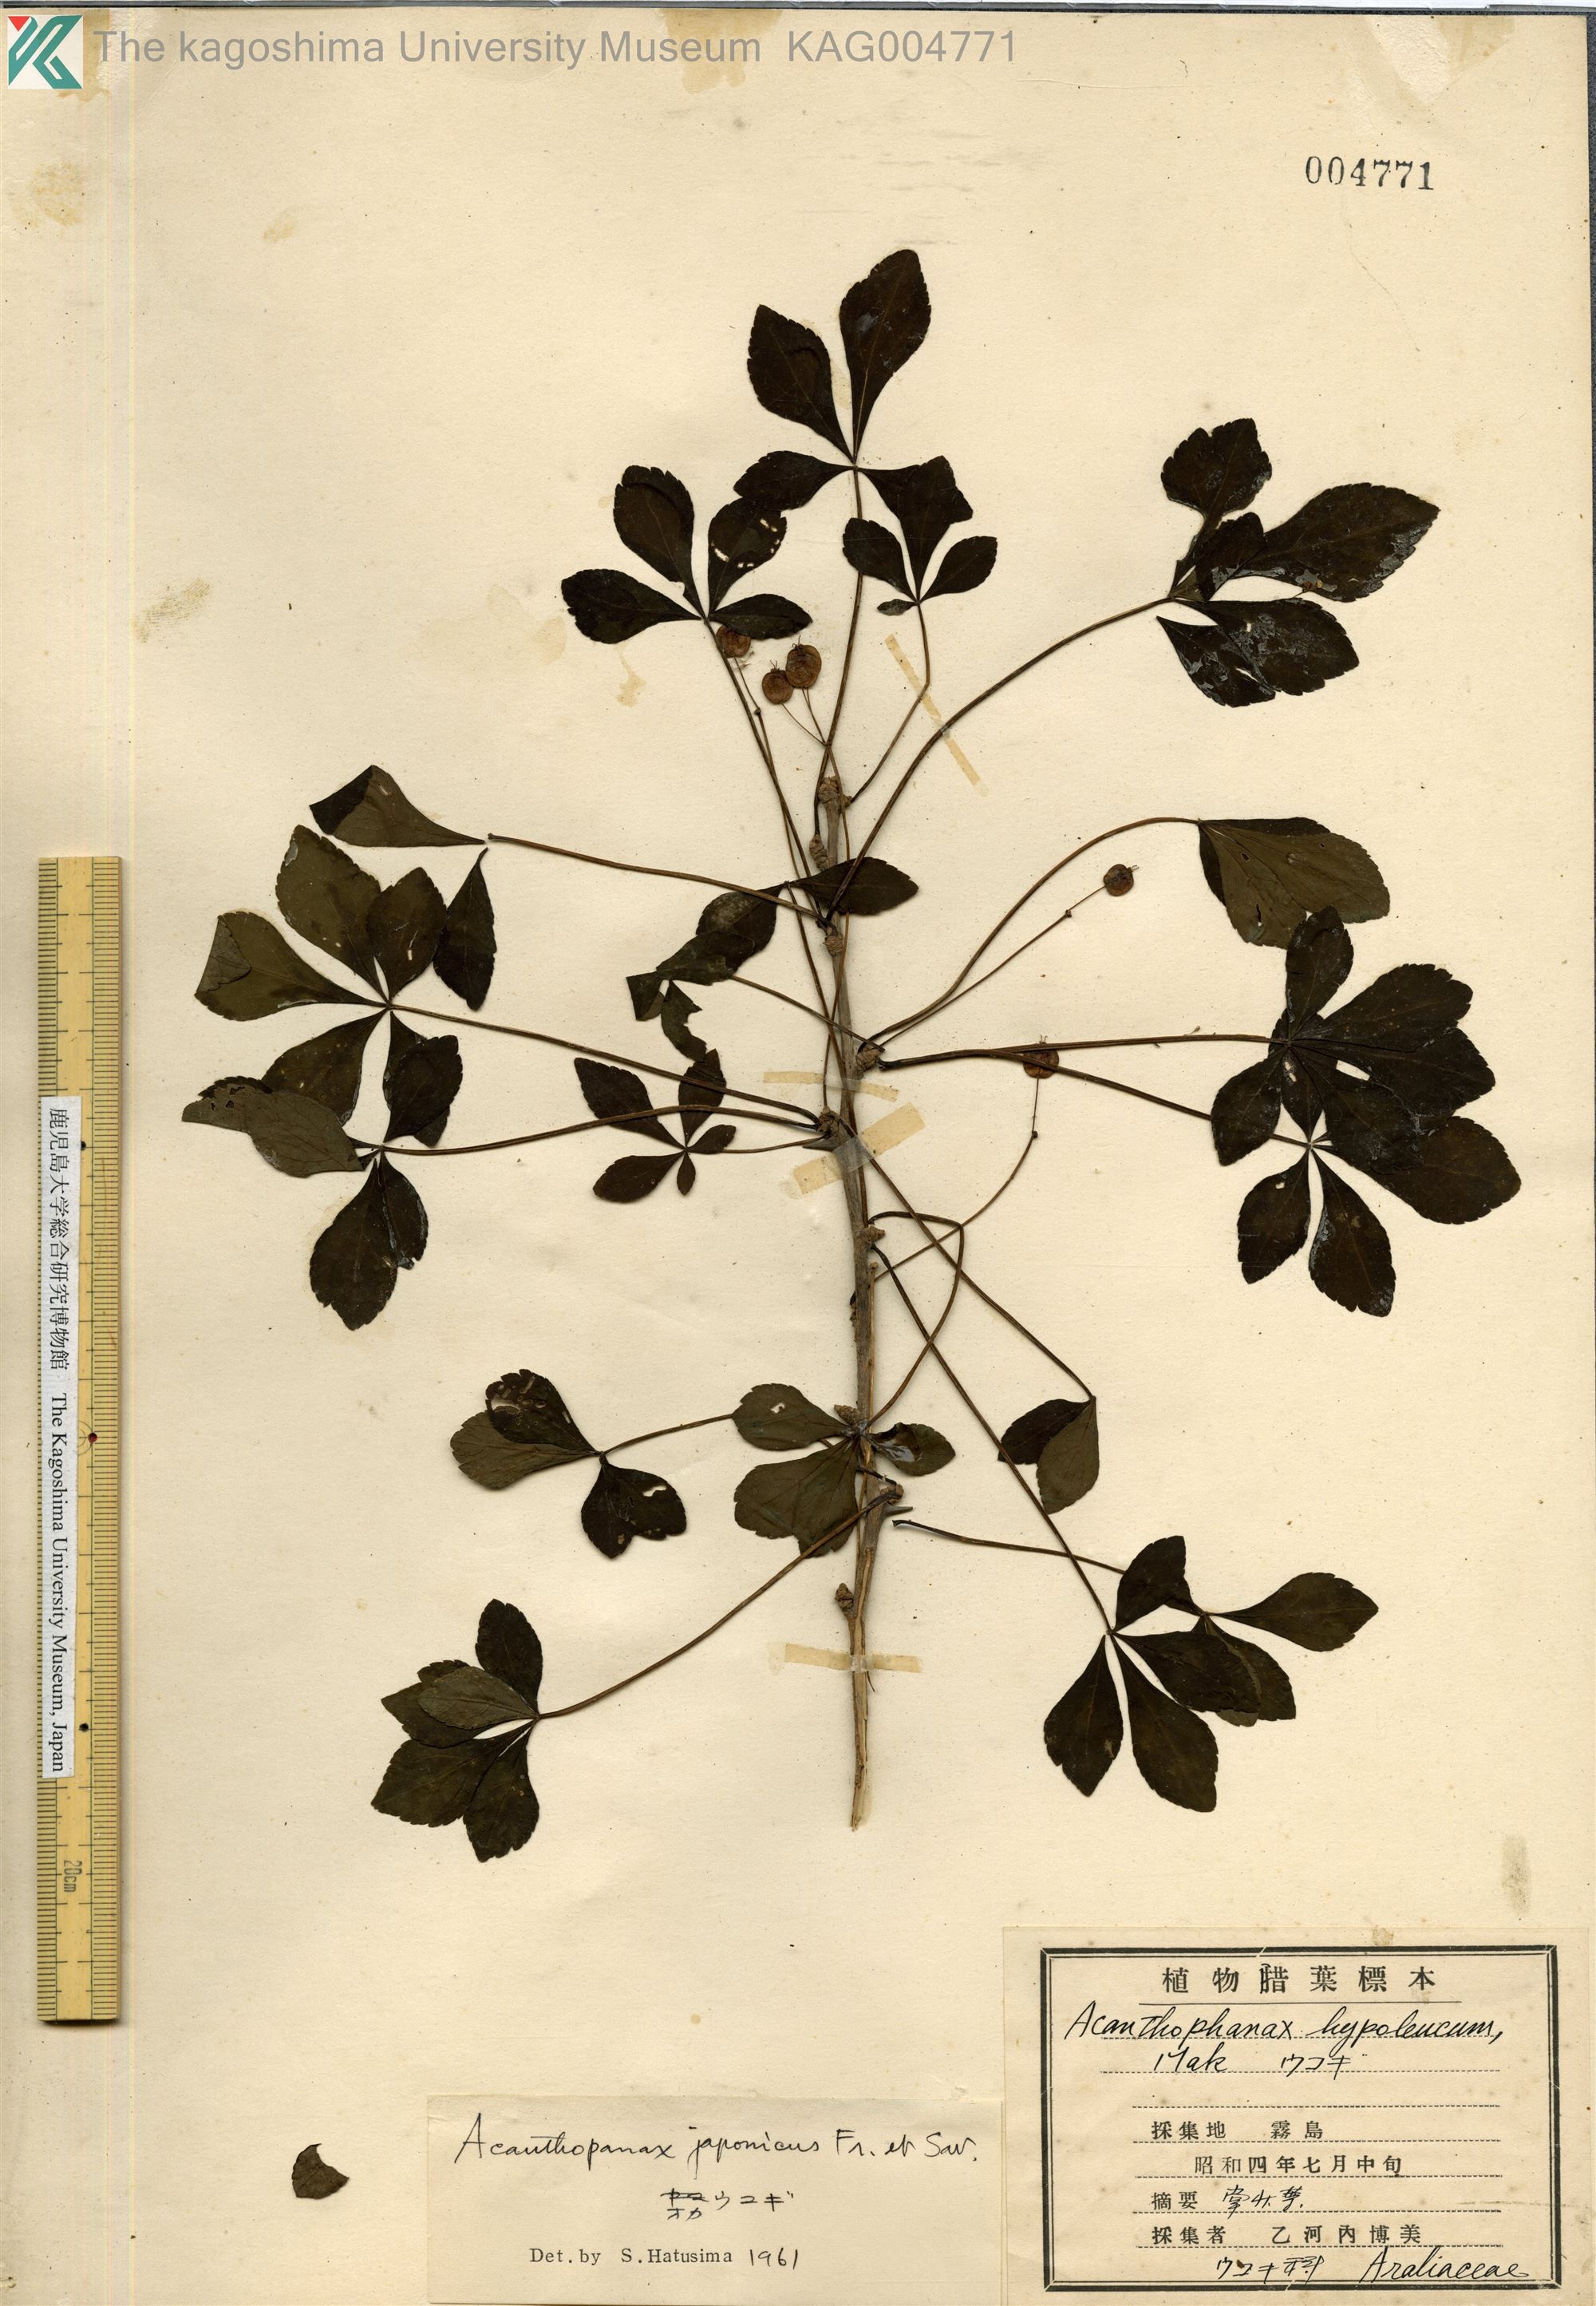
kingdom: Plantae
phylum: Tracheophyta
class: Magnoliopsida
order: Apiales
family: Araliaceae
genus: Eleutherococcus
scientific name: Eleutherococcus japonicus
